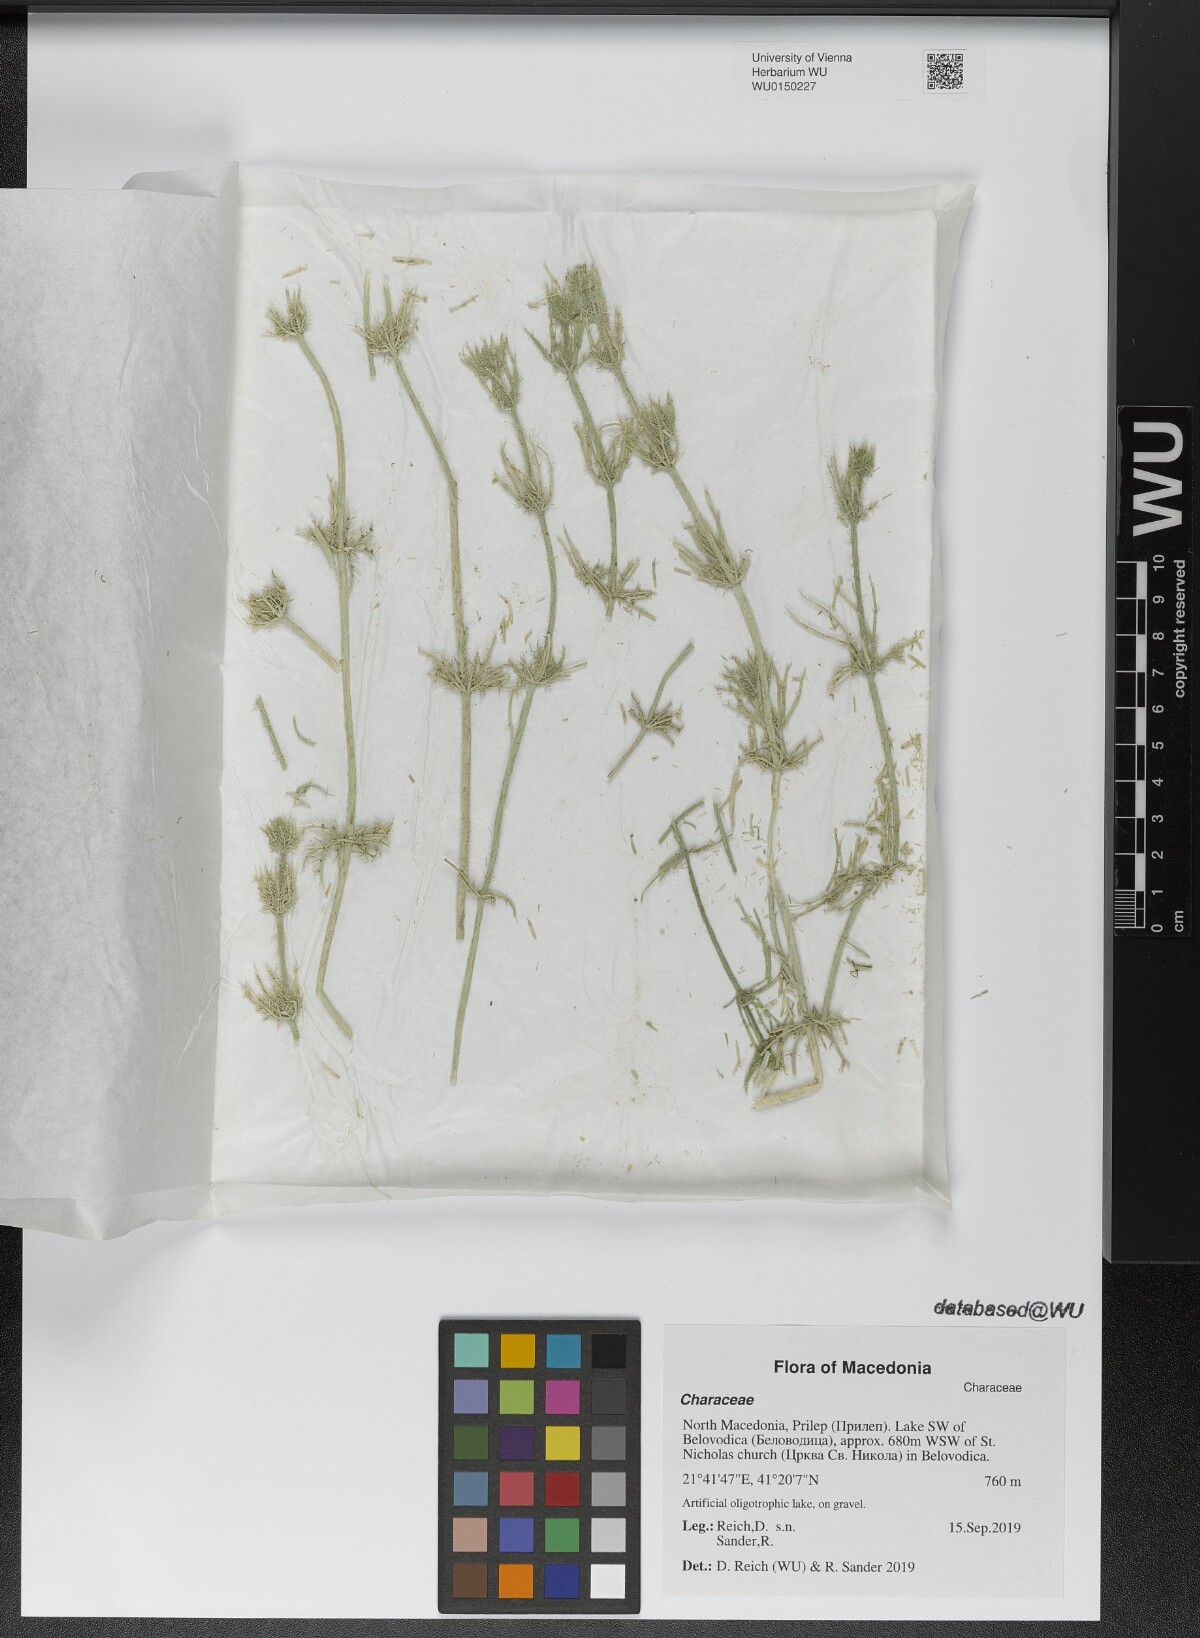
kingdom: Plantae
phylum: Charophyta
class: Charophyceae
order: Charales
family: Characeae
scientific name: Characeae
